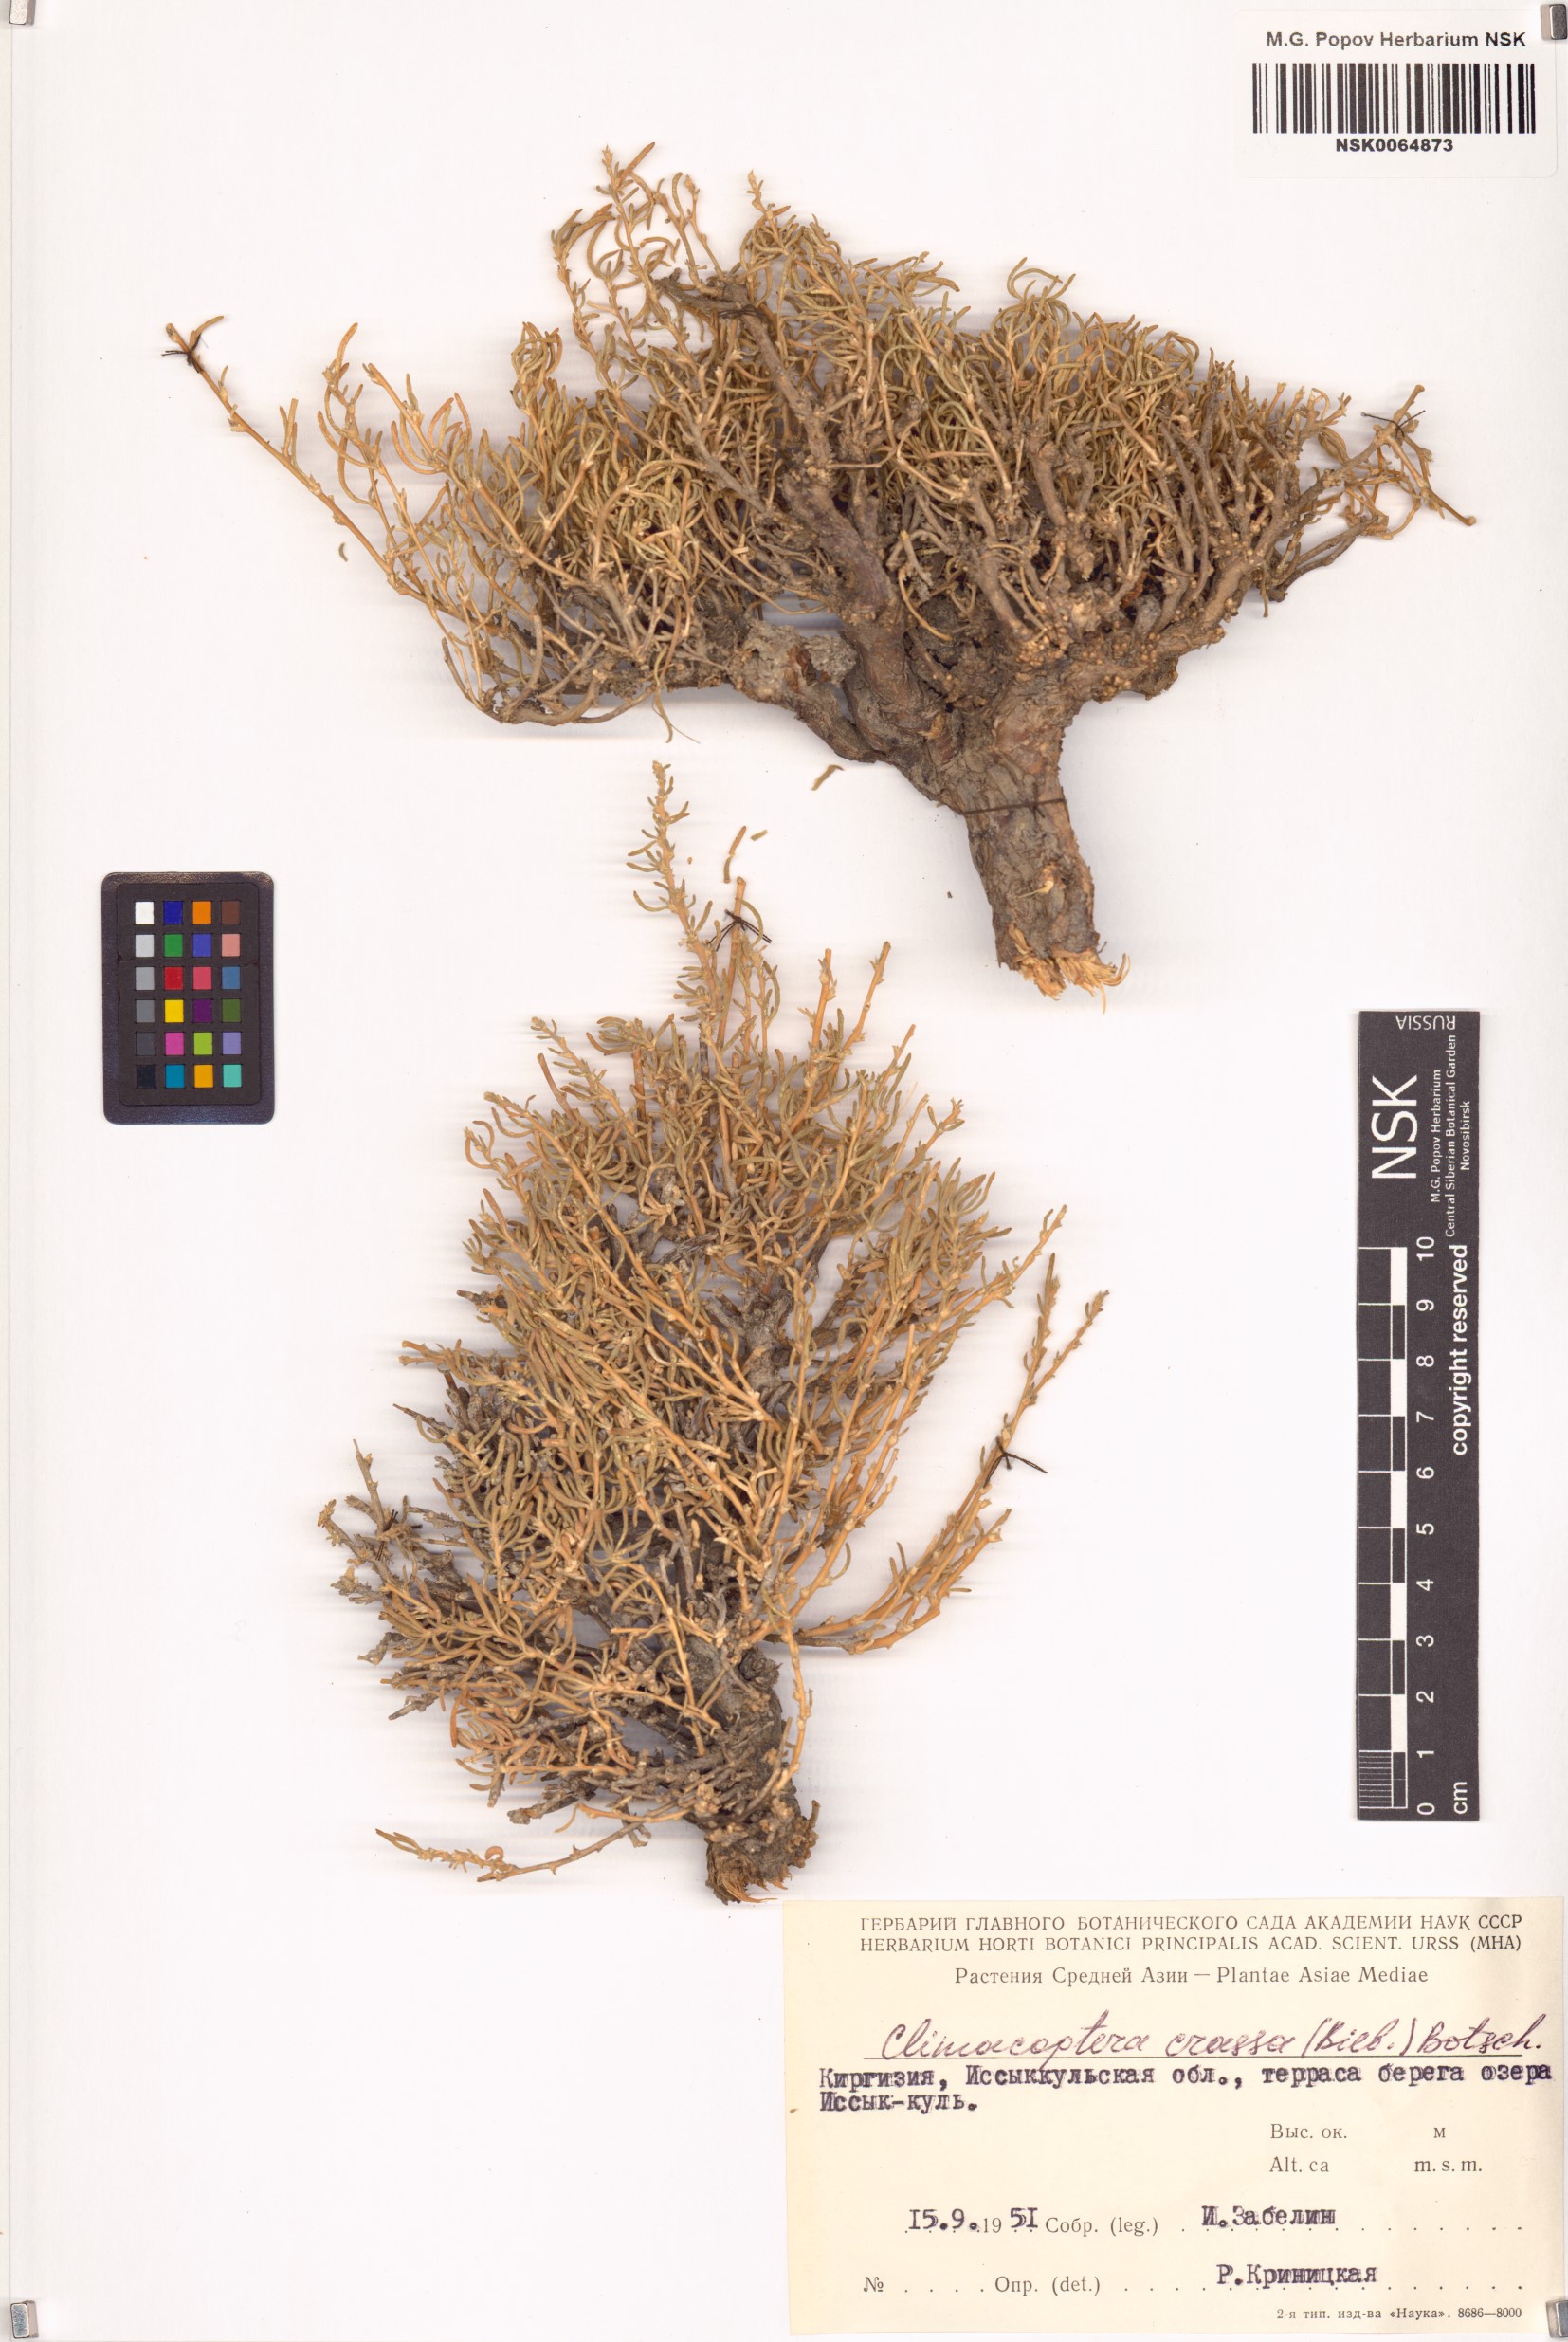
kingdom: Plantae
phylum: Tracheophyta
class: Magnoliopsida
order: Caryophyllales
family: Amaranthaceae
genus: Climacoptera
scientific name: Climacoptera crassa
